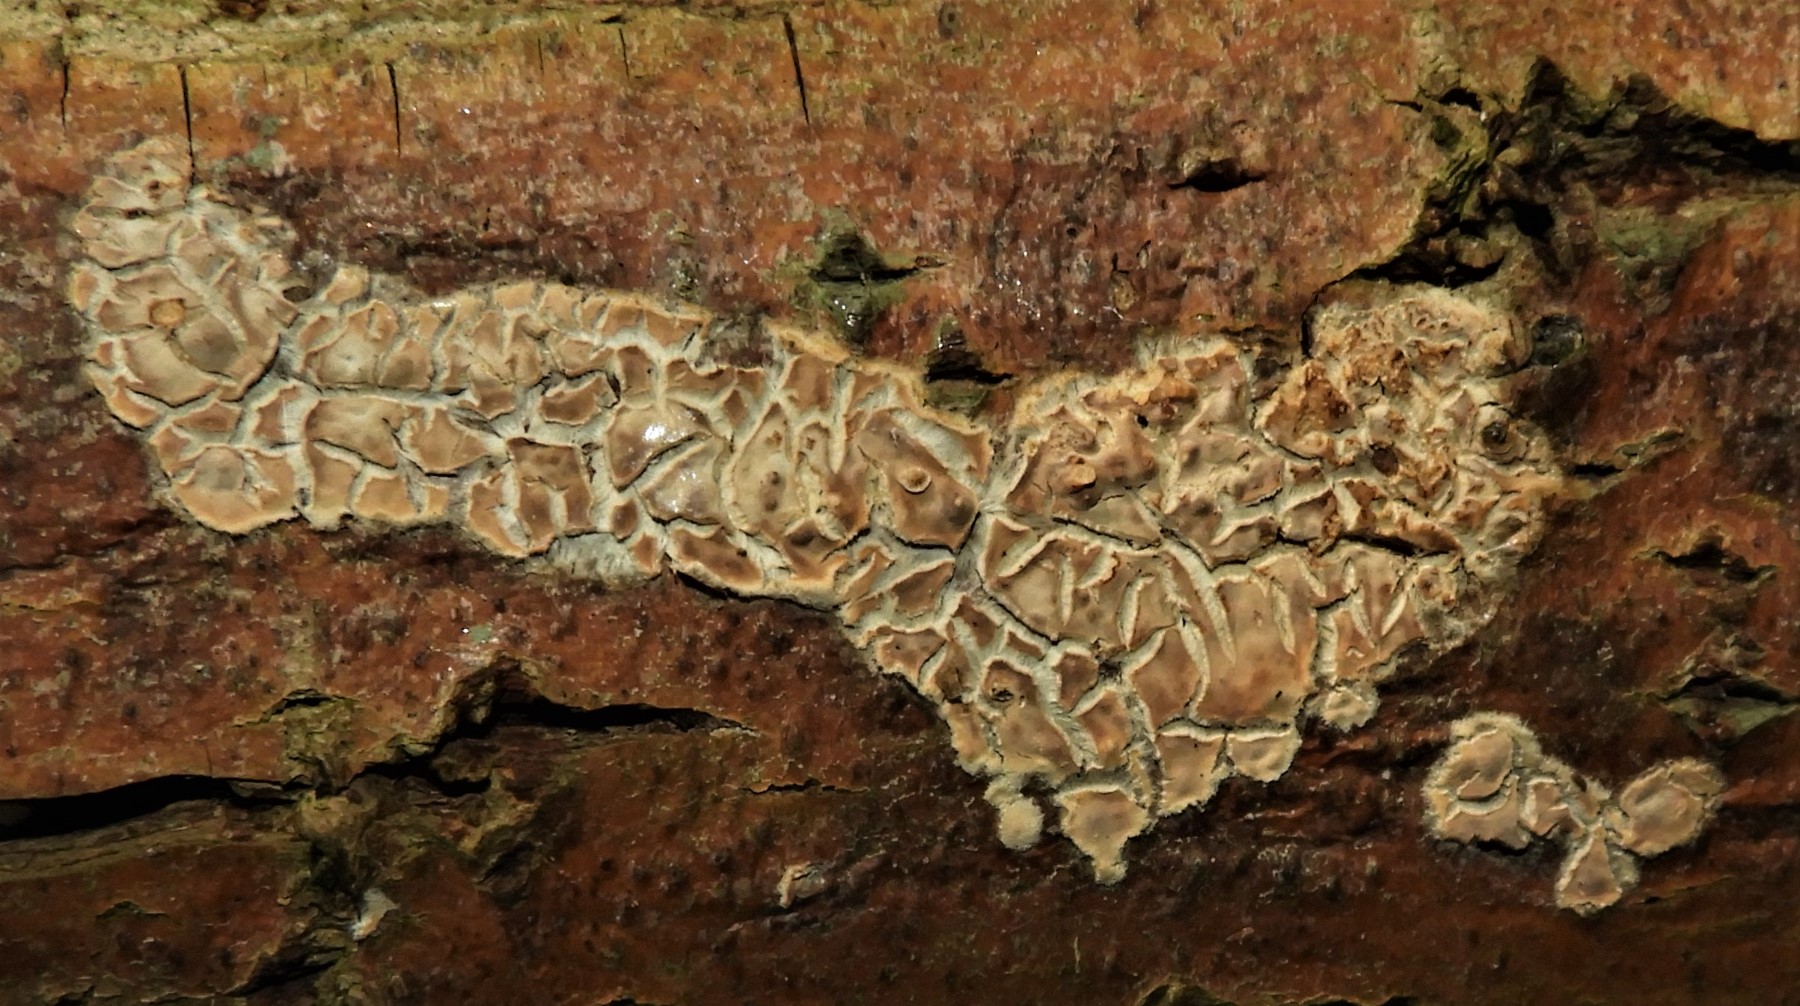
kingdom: Fungi
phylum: Basidiomycota
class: Agaricomycetes
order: Agaricales
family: Physalacriaceae
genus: Cylindrobasidium
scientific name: Cylindrobasidium evolvens
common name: sprækkehinde
